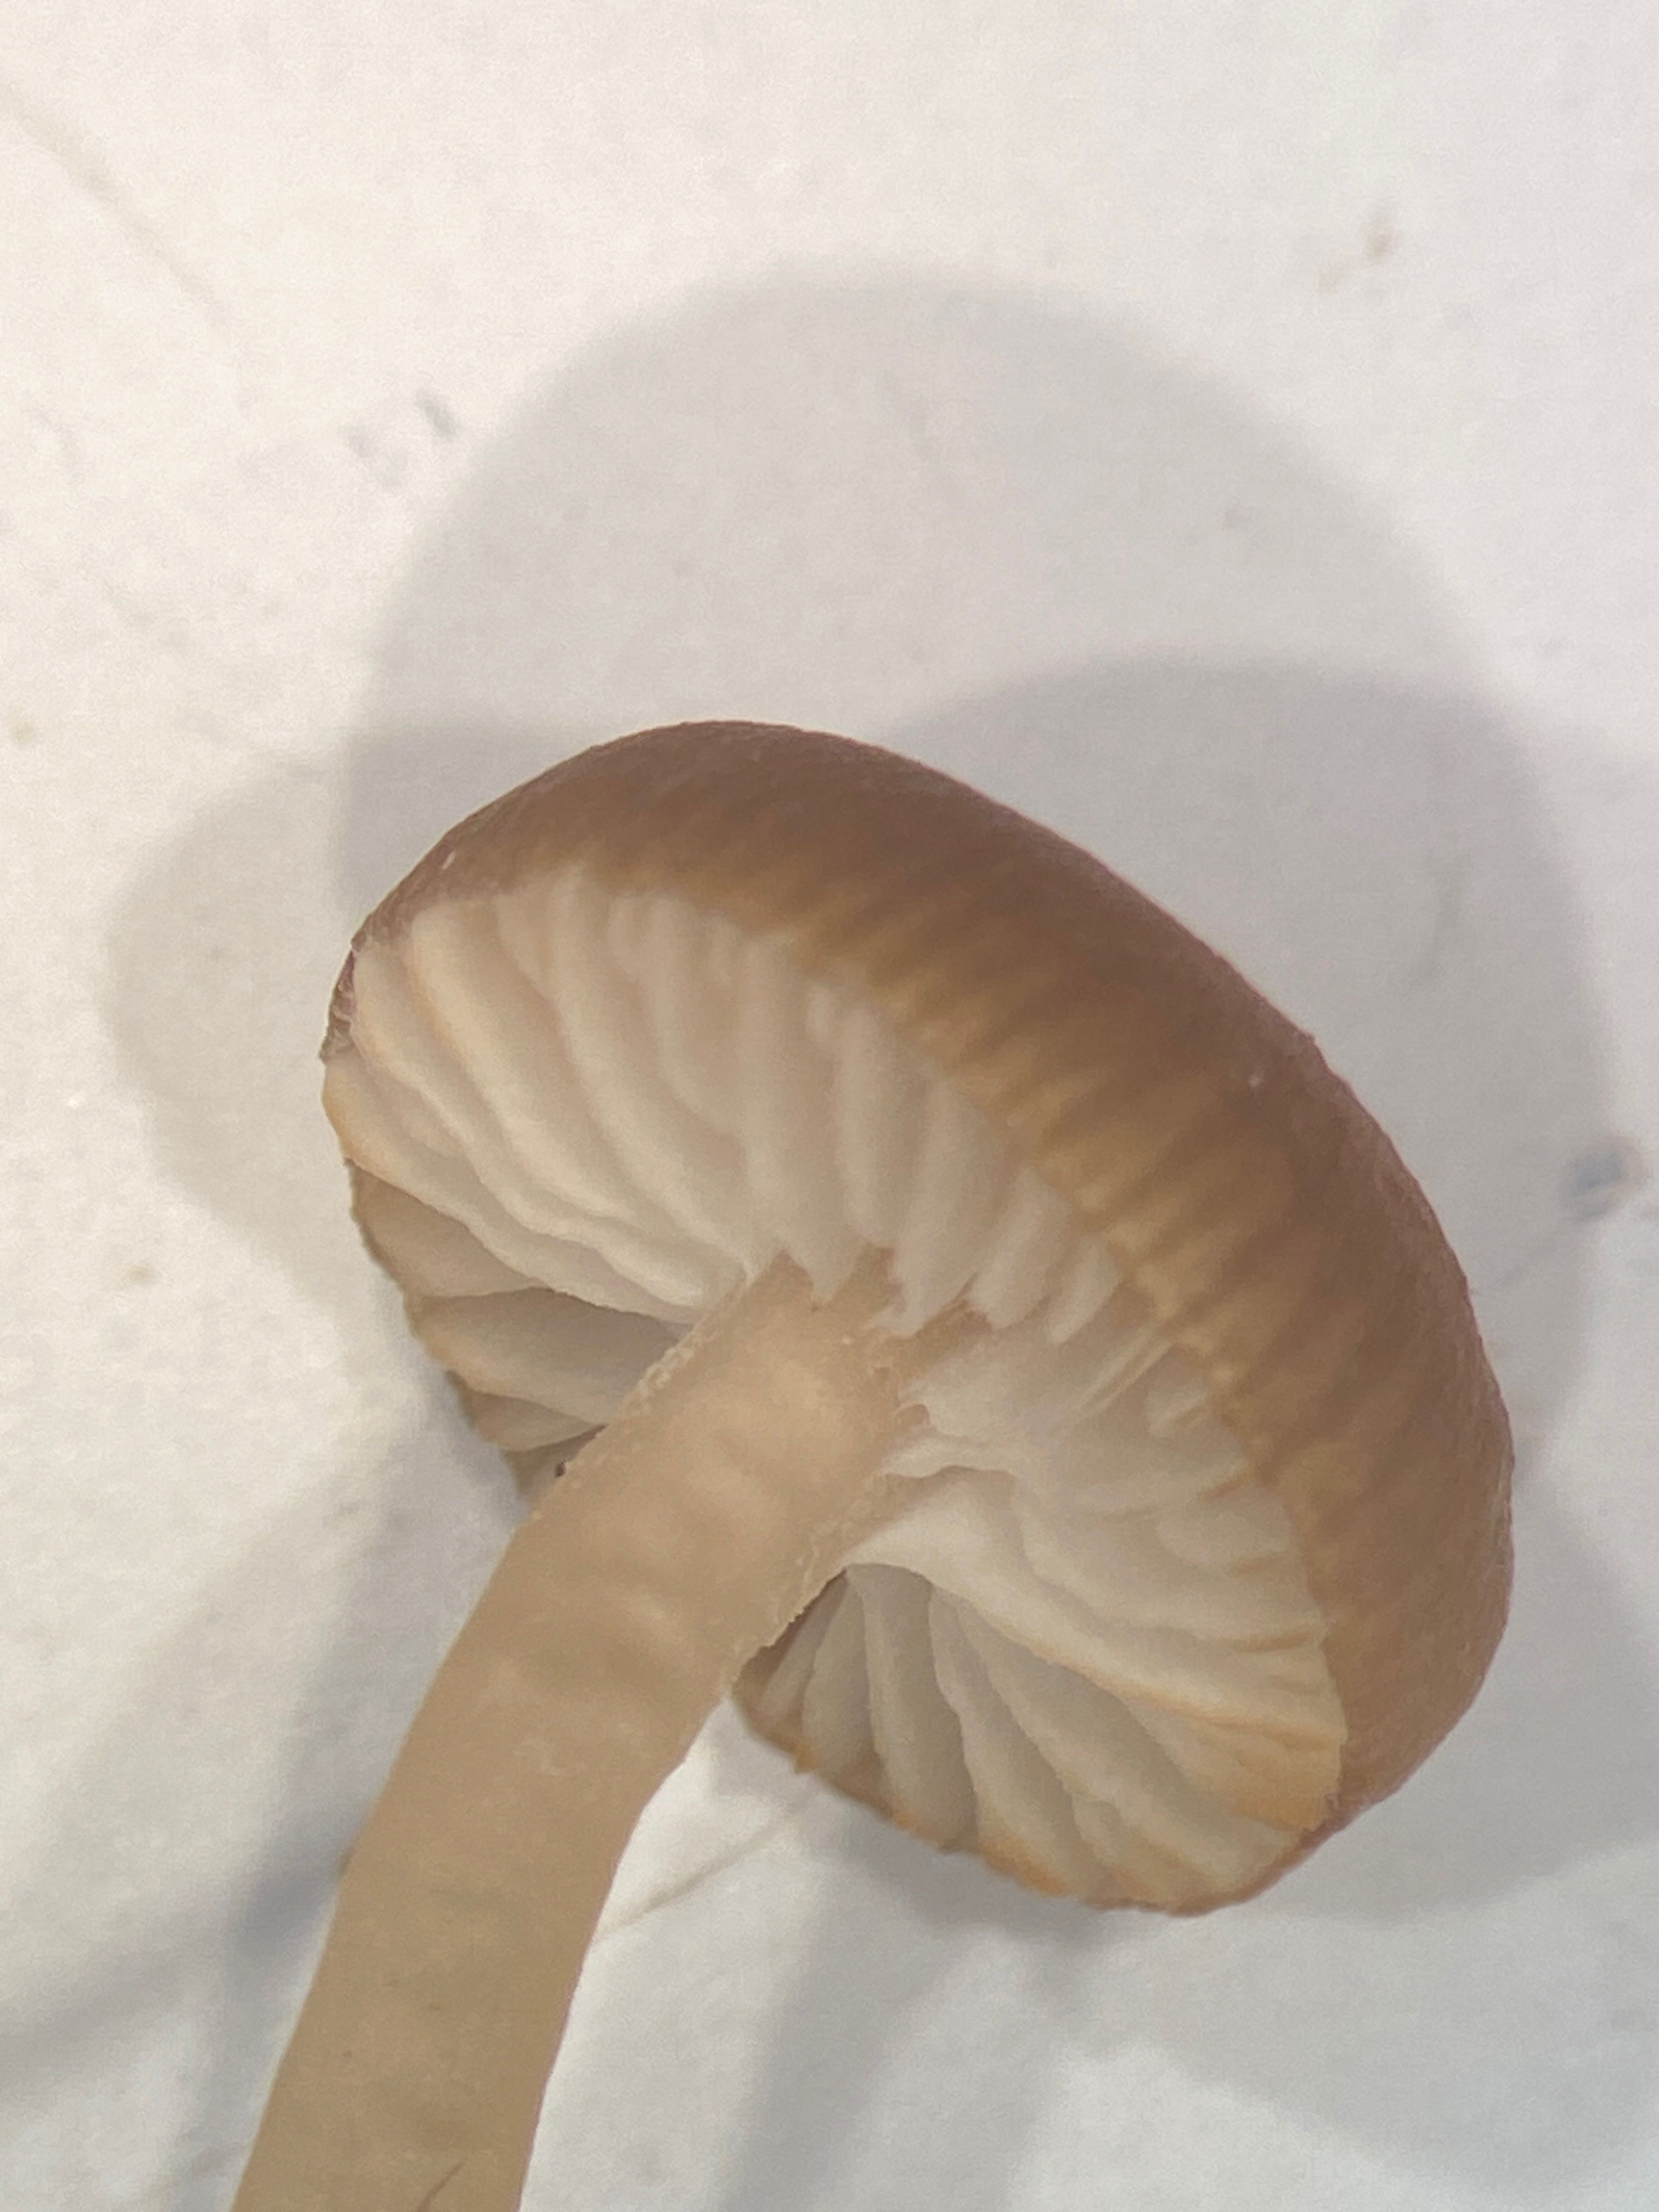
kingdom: Fungi
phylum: Basidiomycota
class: Agaricomycetes
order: Agaricales
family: Tricholomataceae
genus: Gamundia
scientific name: Gamundia xerophila
